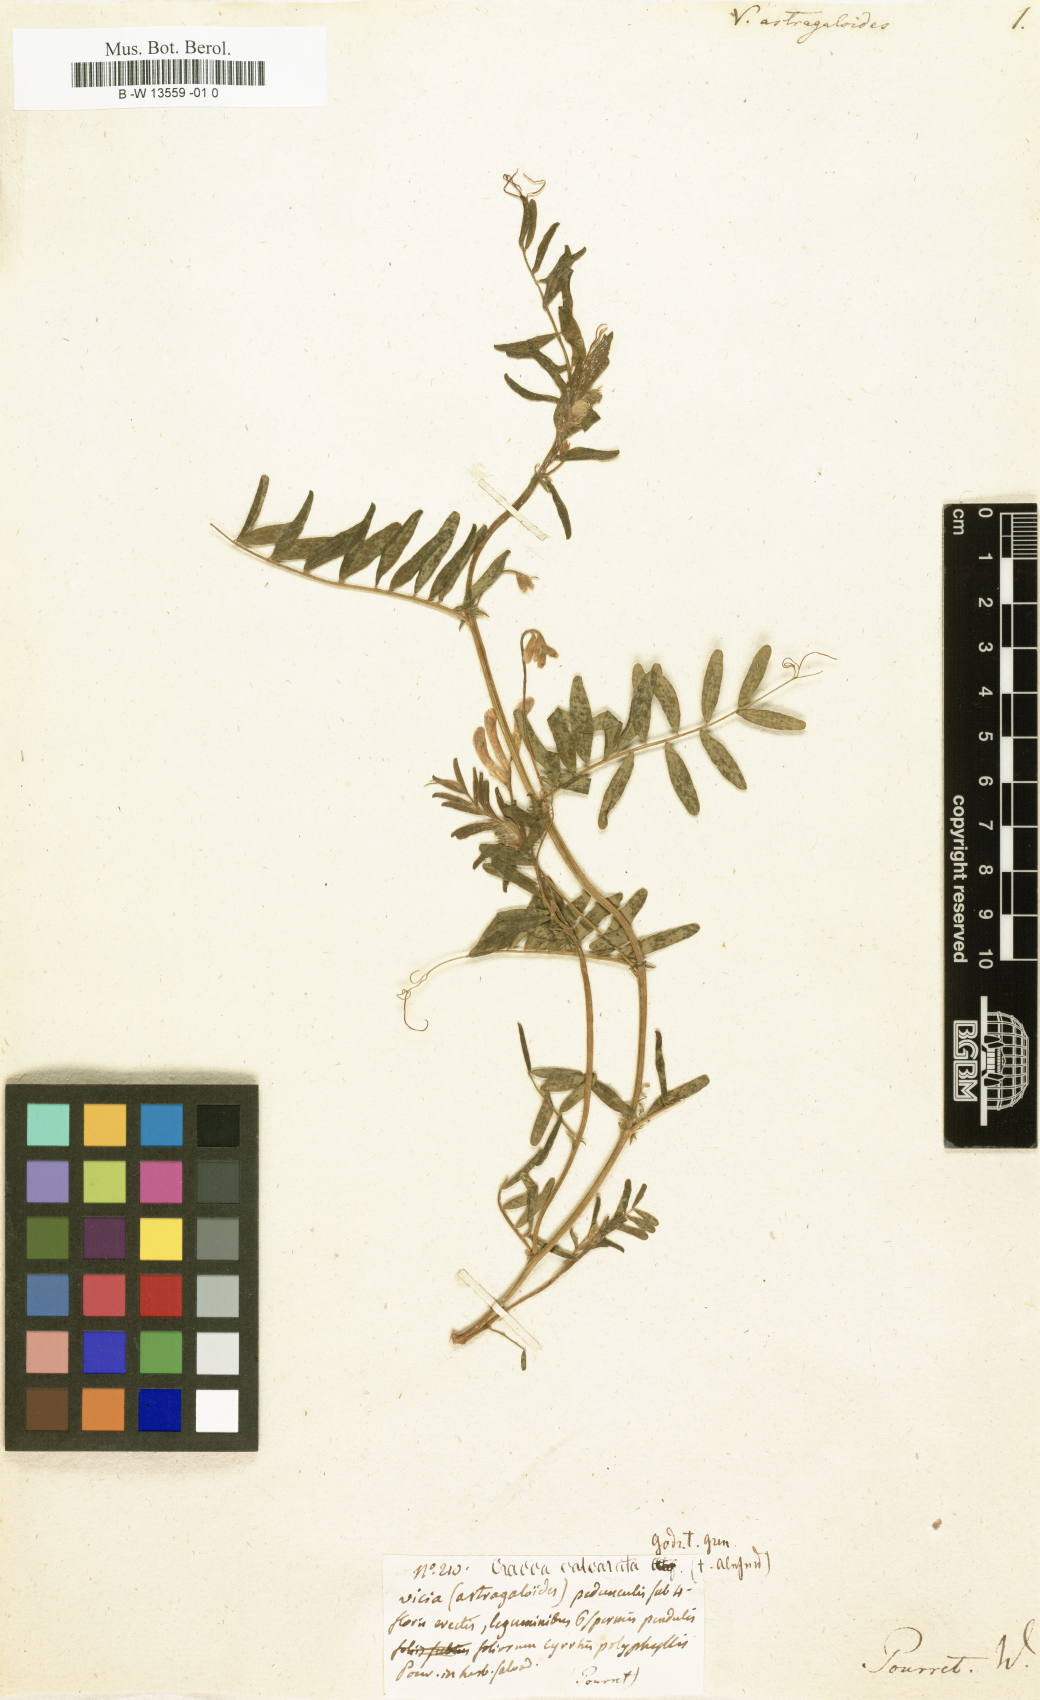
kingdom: Plantae
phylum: Tracheophyta
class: Magnoliopsida
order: Fabales
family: Fabaceae
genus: Astragalus
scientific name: Astragalus guttatus
